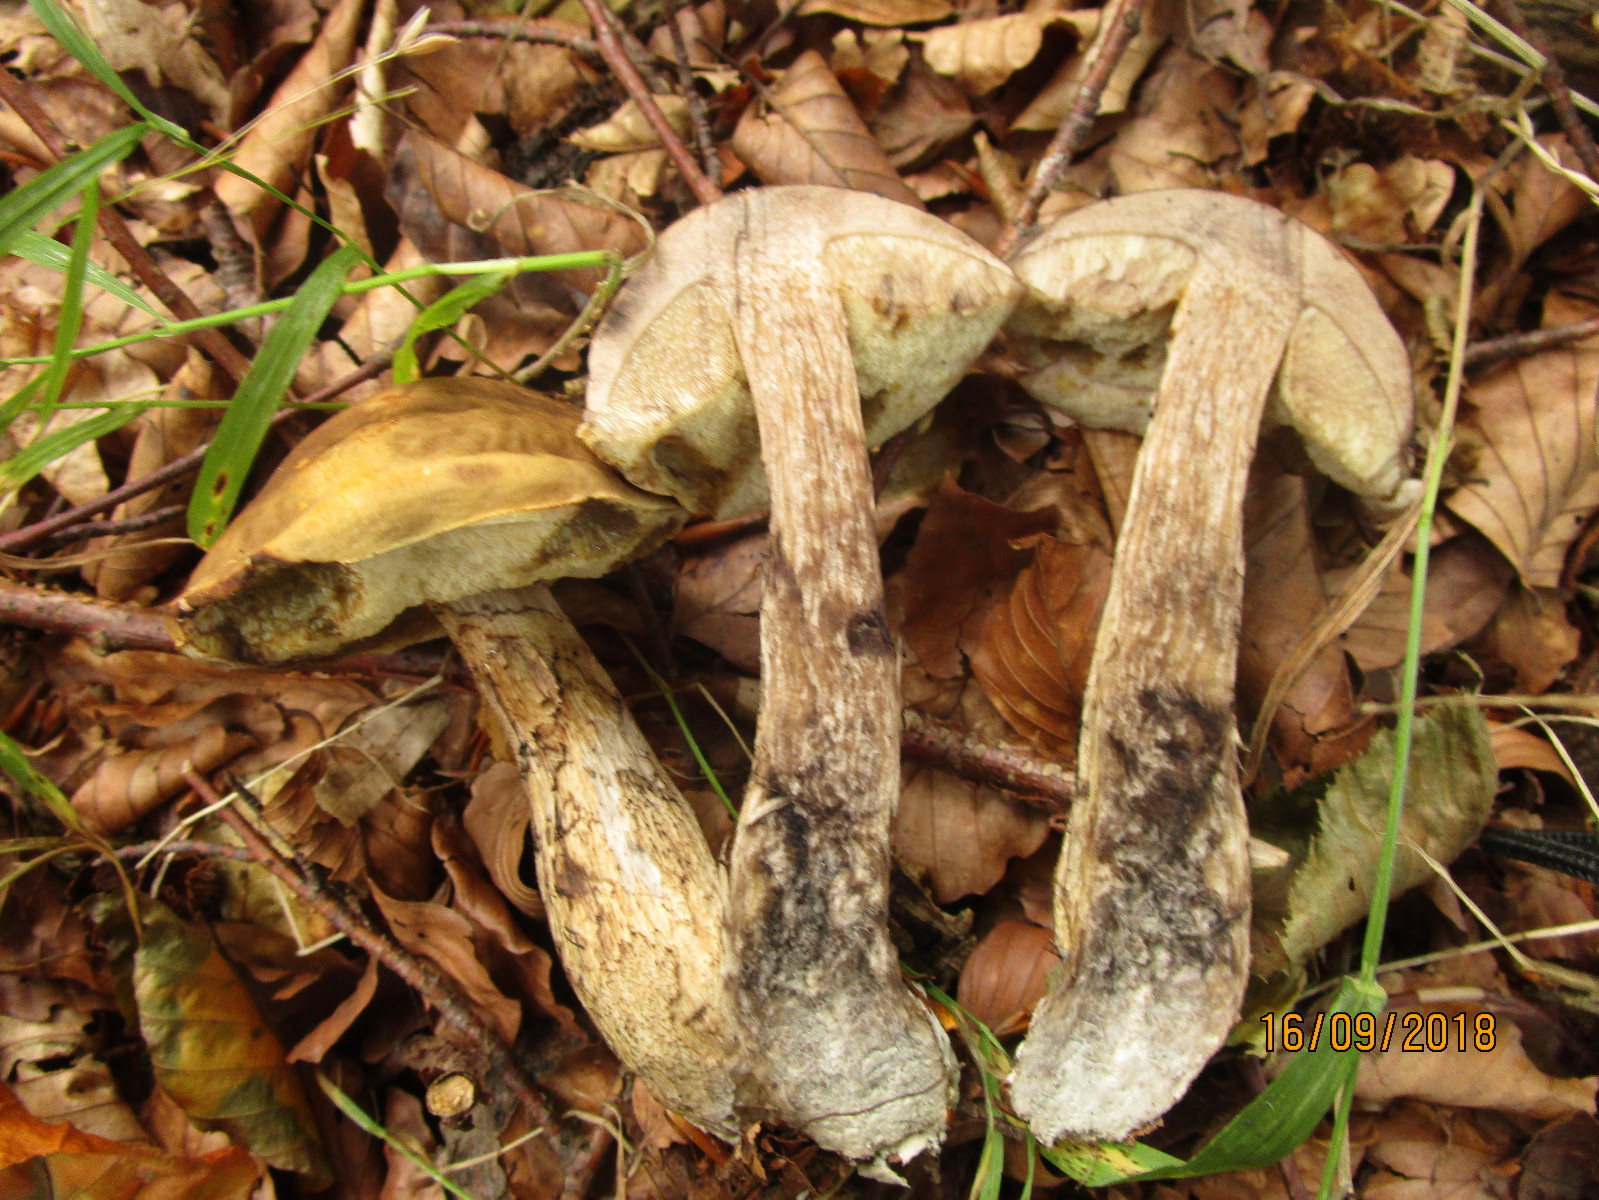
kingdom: Fungi
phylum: Basidiomycota
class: Agaricomycetes
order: Boletales
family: Boletaceae
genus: Leccinellum
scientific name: Leccinellum pseudoscabrum
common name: avnbøg-skælrørhat
